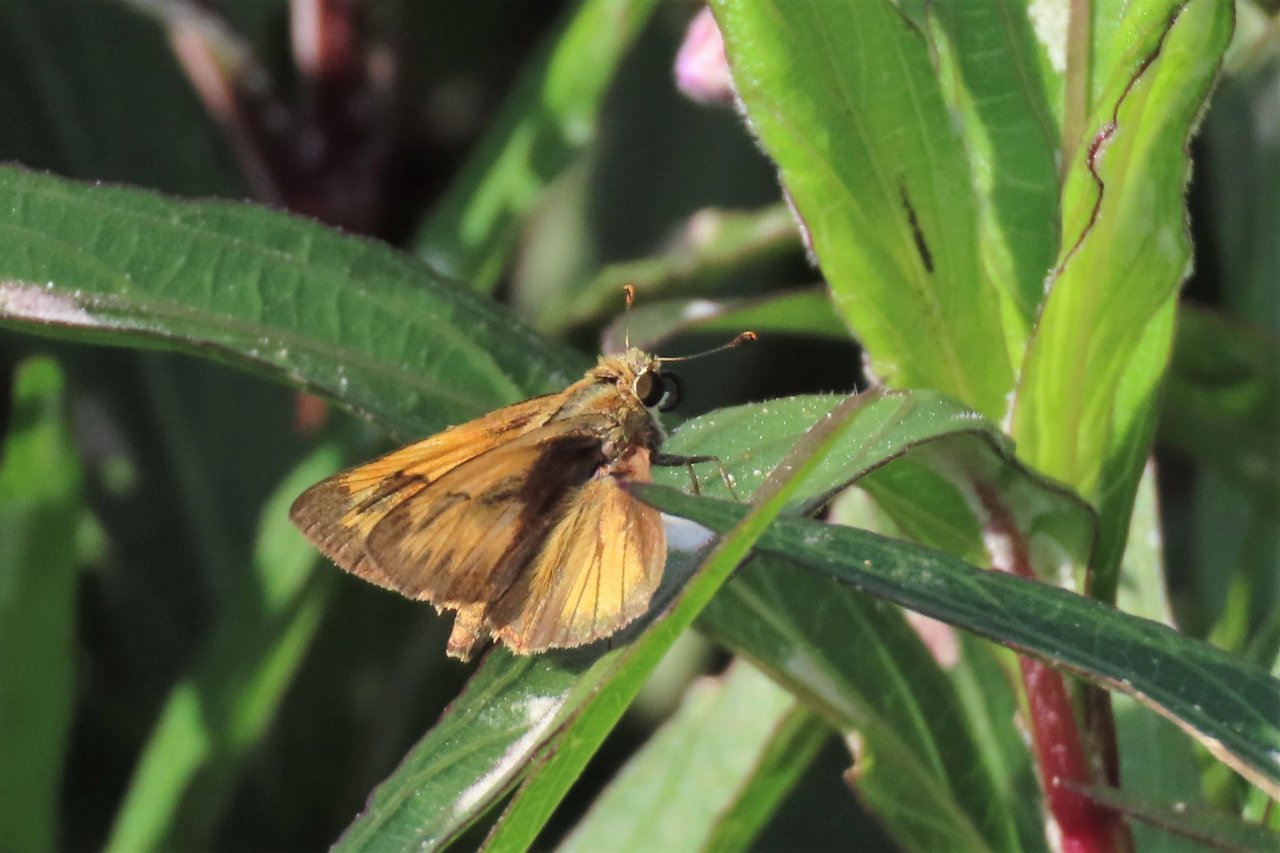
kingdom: Animalia
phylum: Arthropoda
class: Insecta
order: Lepidoptera
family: Hesperiidae
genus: Polites
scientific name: Polites vibex
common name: Whirlabout
